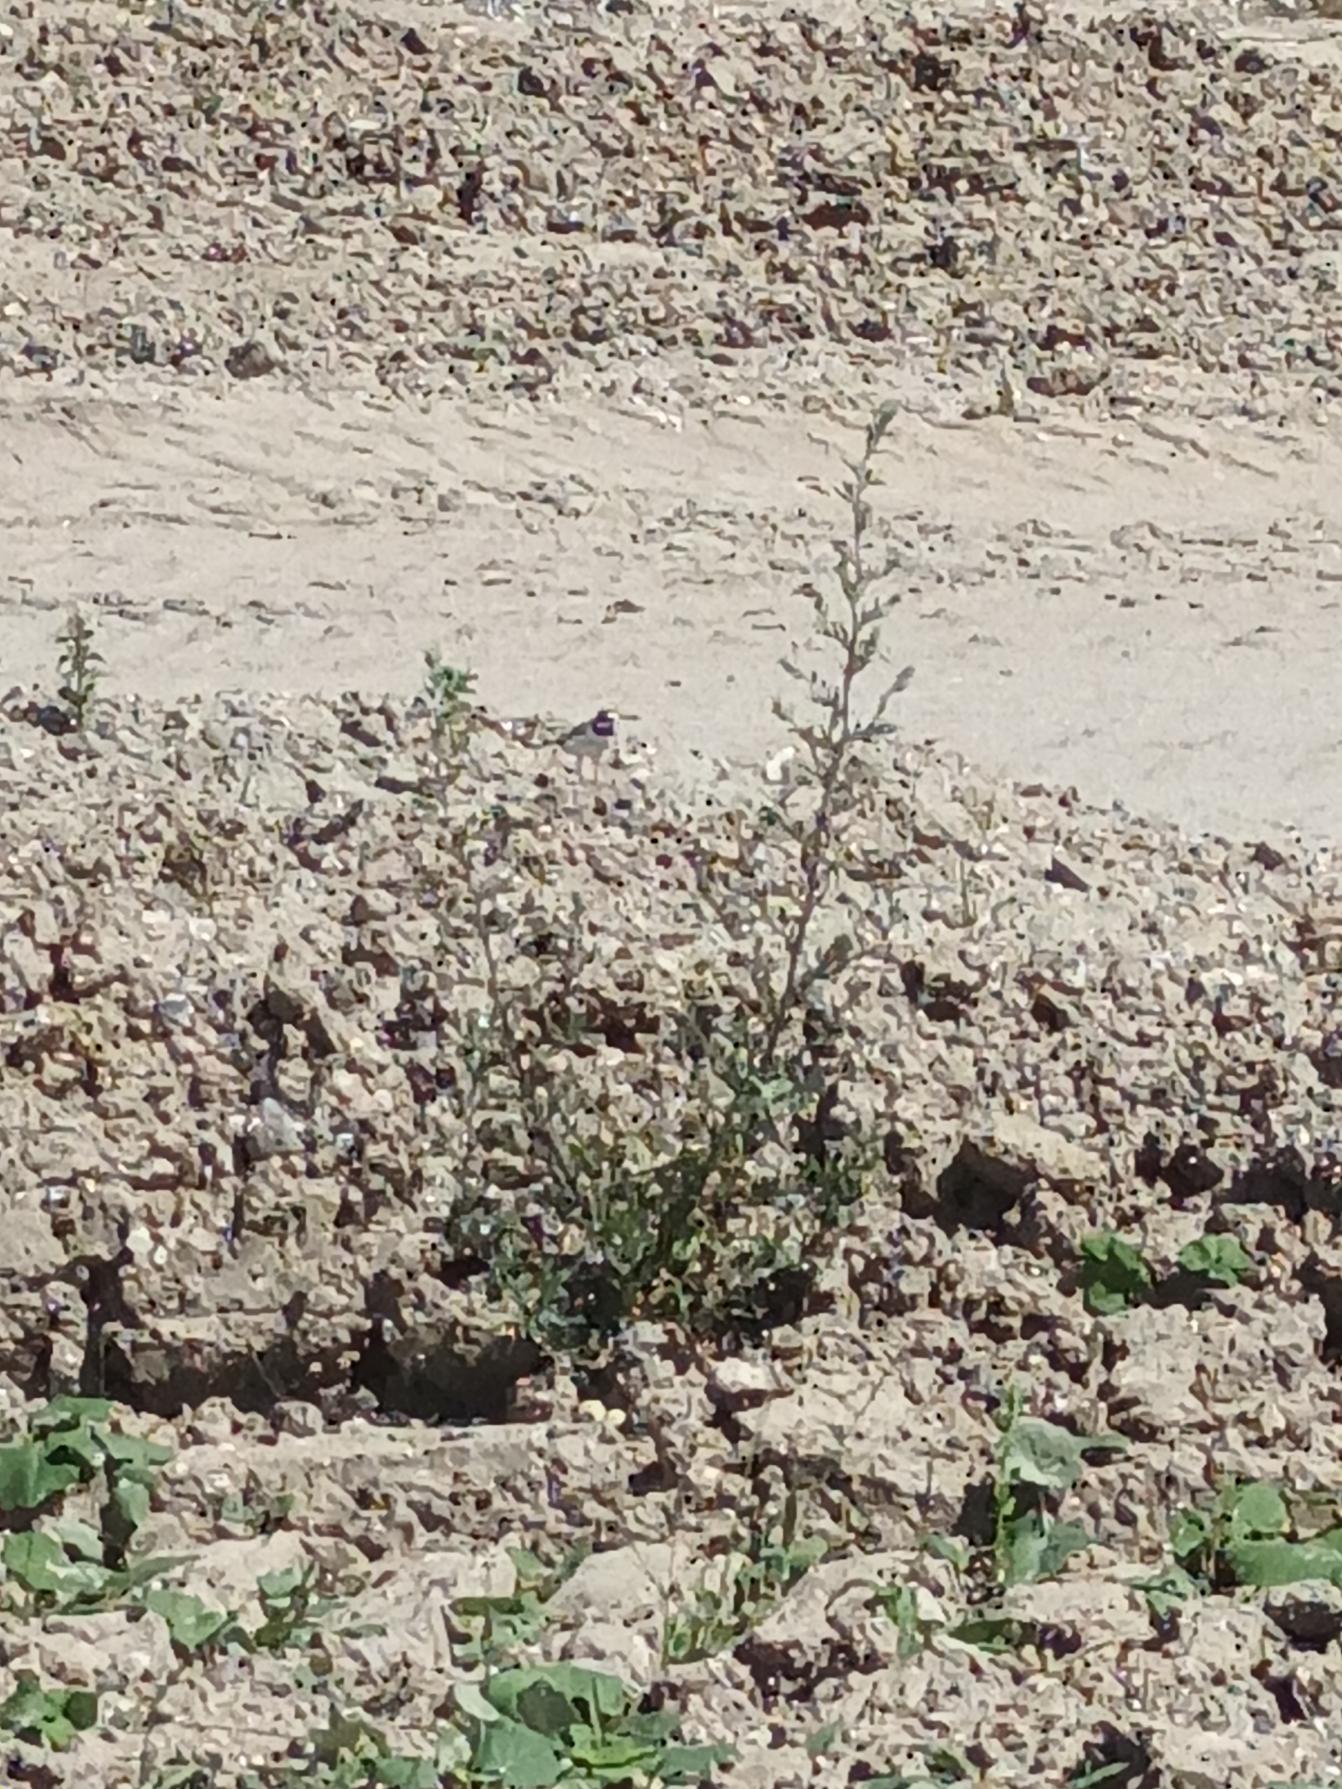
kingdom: Animalia
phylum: Chordata
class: Aves
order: Charadriiformes
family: Charadriidae
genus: Charadrius
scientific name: Charadrius hiaticula
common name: Stor præstekrave
